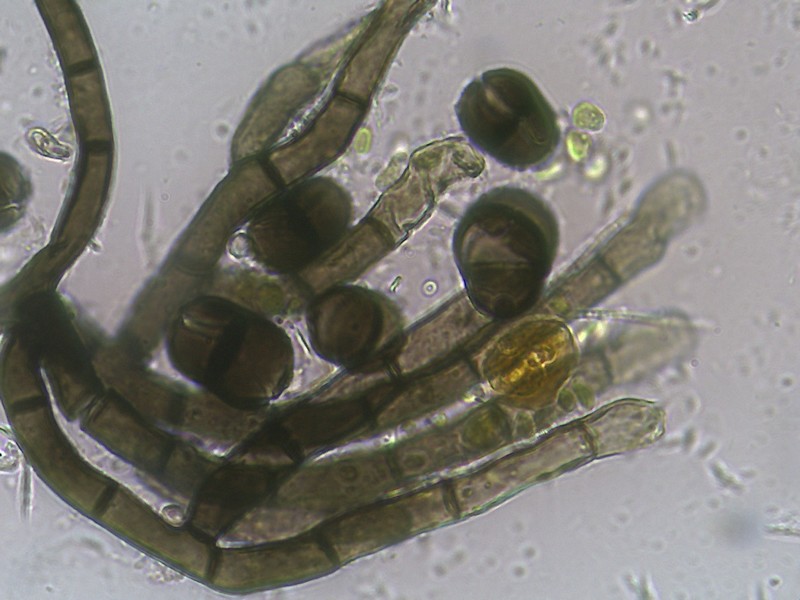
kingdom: Fungi
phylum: Ascomycota
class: Sordariomycetes
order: Coronophorales
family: Chaetosphaerellaceae
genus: Chaetosphaerella
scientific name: Chaetosphaerella fusca
